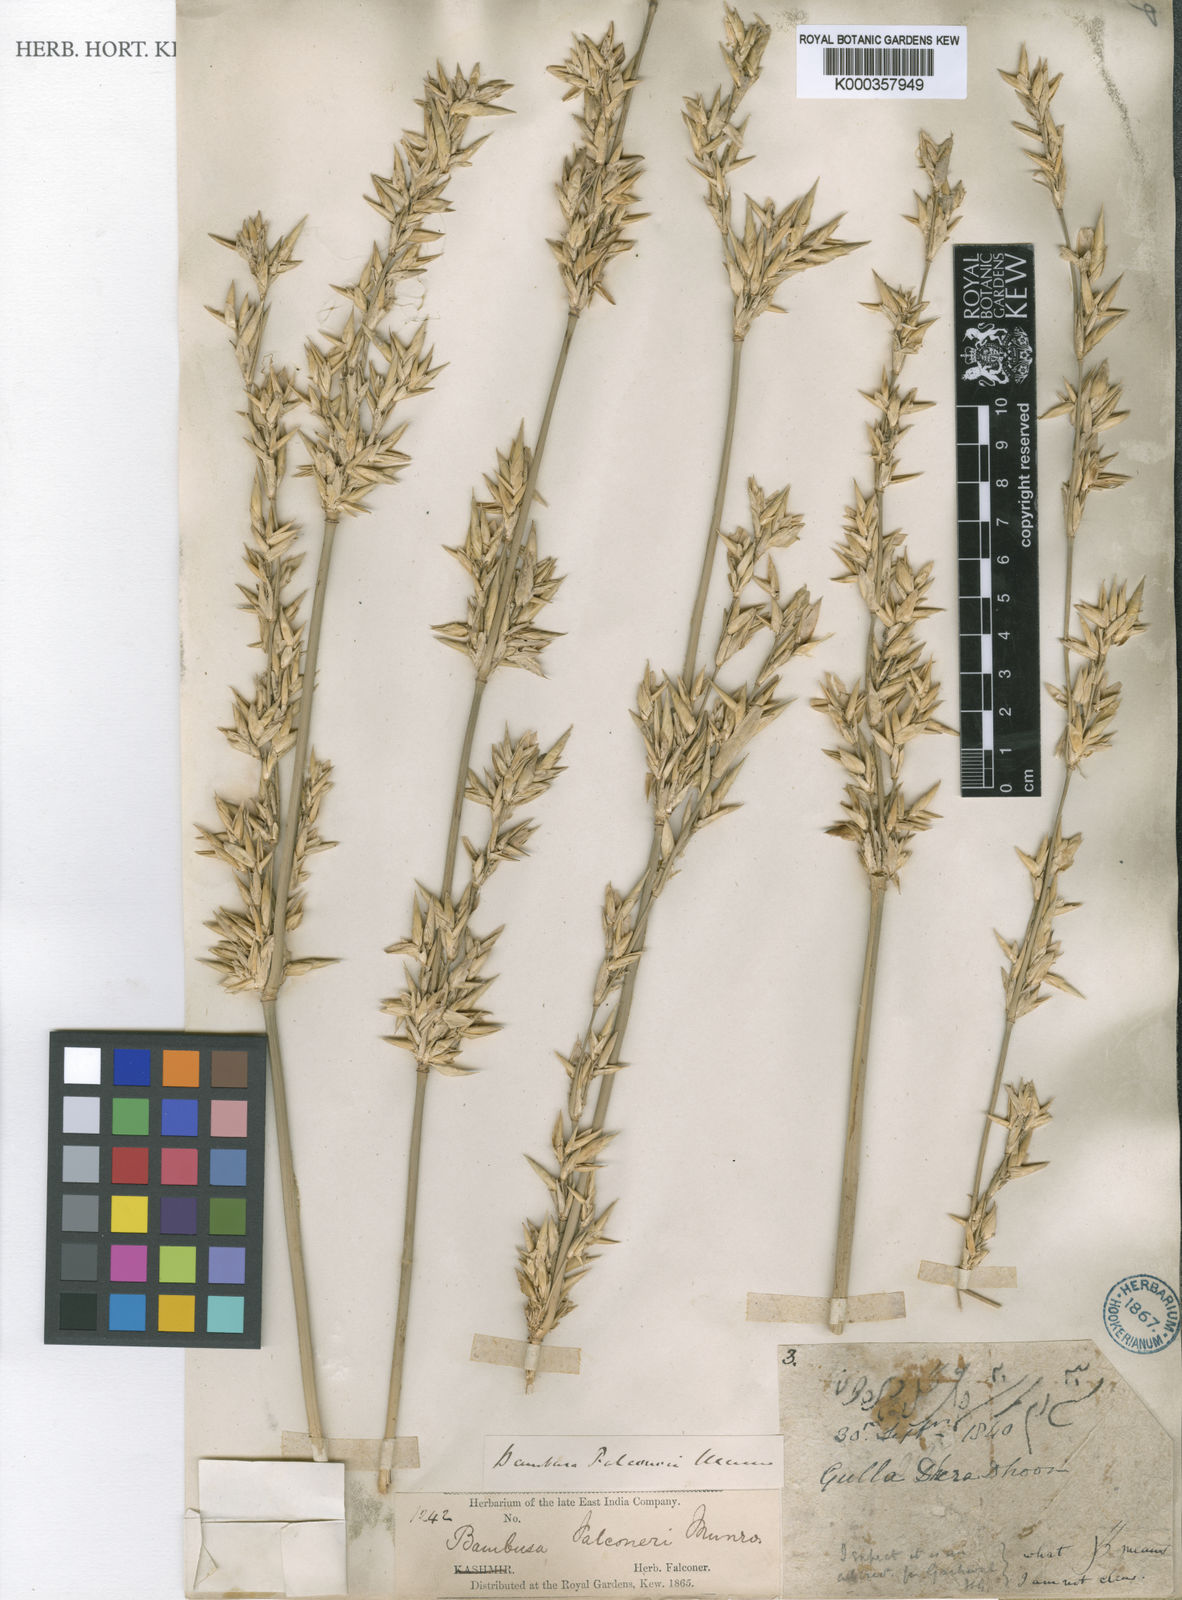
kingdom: Plantae
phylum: Tracheophyta
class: Liliopsida
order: Poales
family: Poaceae
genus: Bambusa
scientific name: Bambusa nutans
